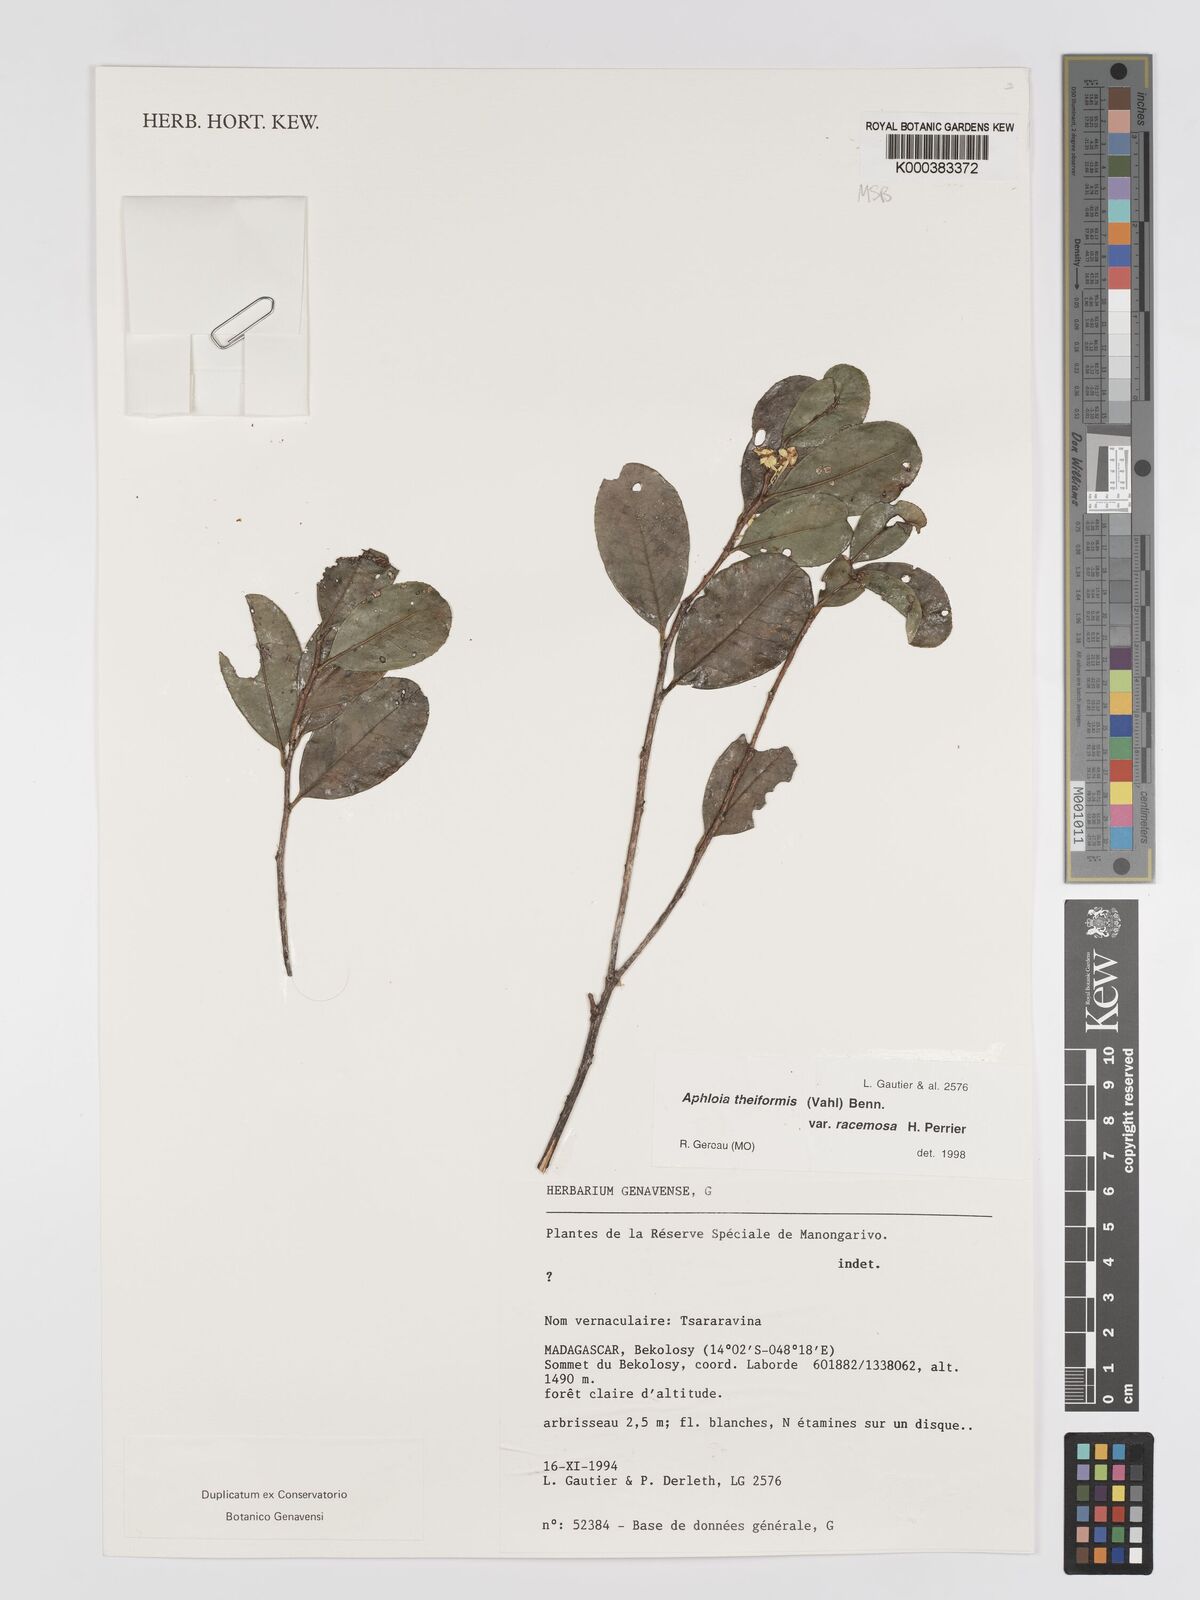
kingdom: Plantae
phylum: Tracheophyta
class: Magnoliopsida
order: Crossosomatales
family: Aphloiaceae
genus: Aphloia
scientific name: Aphloia theiformis
